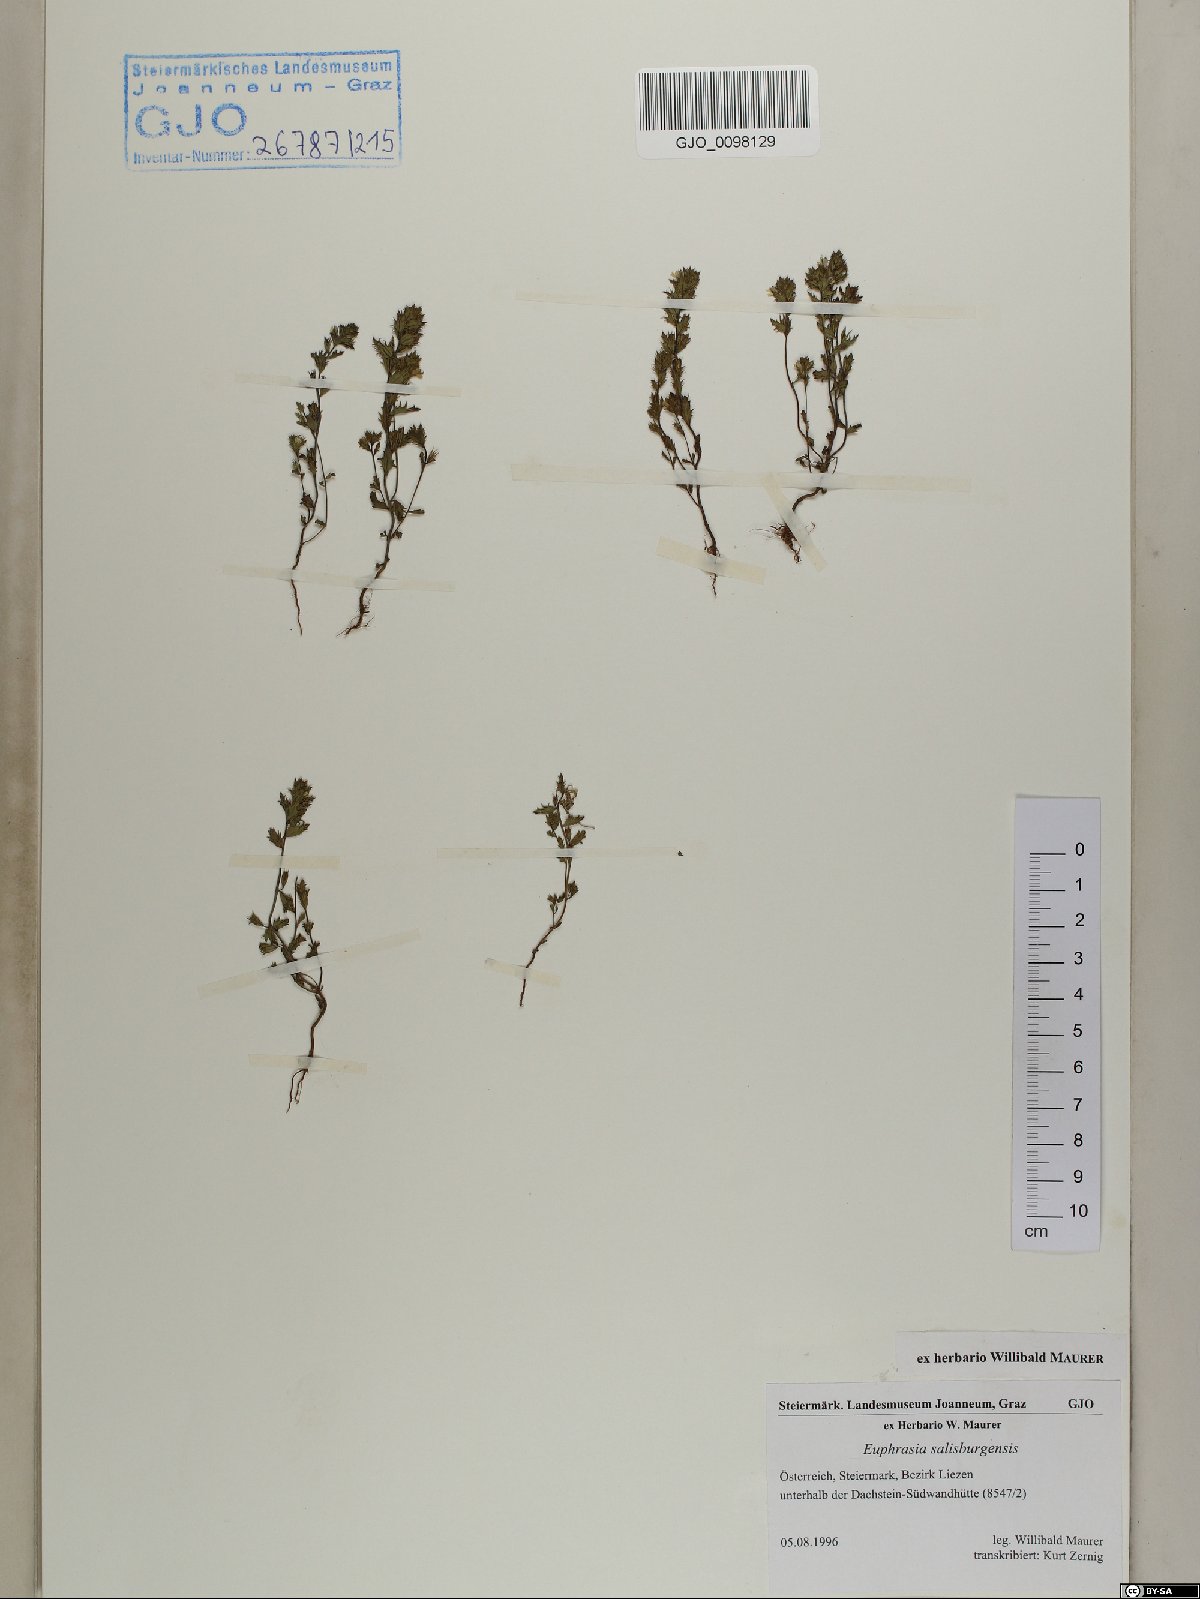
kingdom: Plantae
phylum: Tracheophyta
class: Magnoliopsida
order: Lamiales
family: Orobanchaceae
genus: Euphrasia
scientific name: Euphrasia salisburgensis
